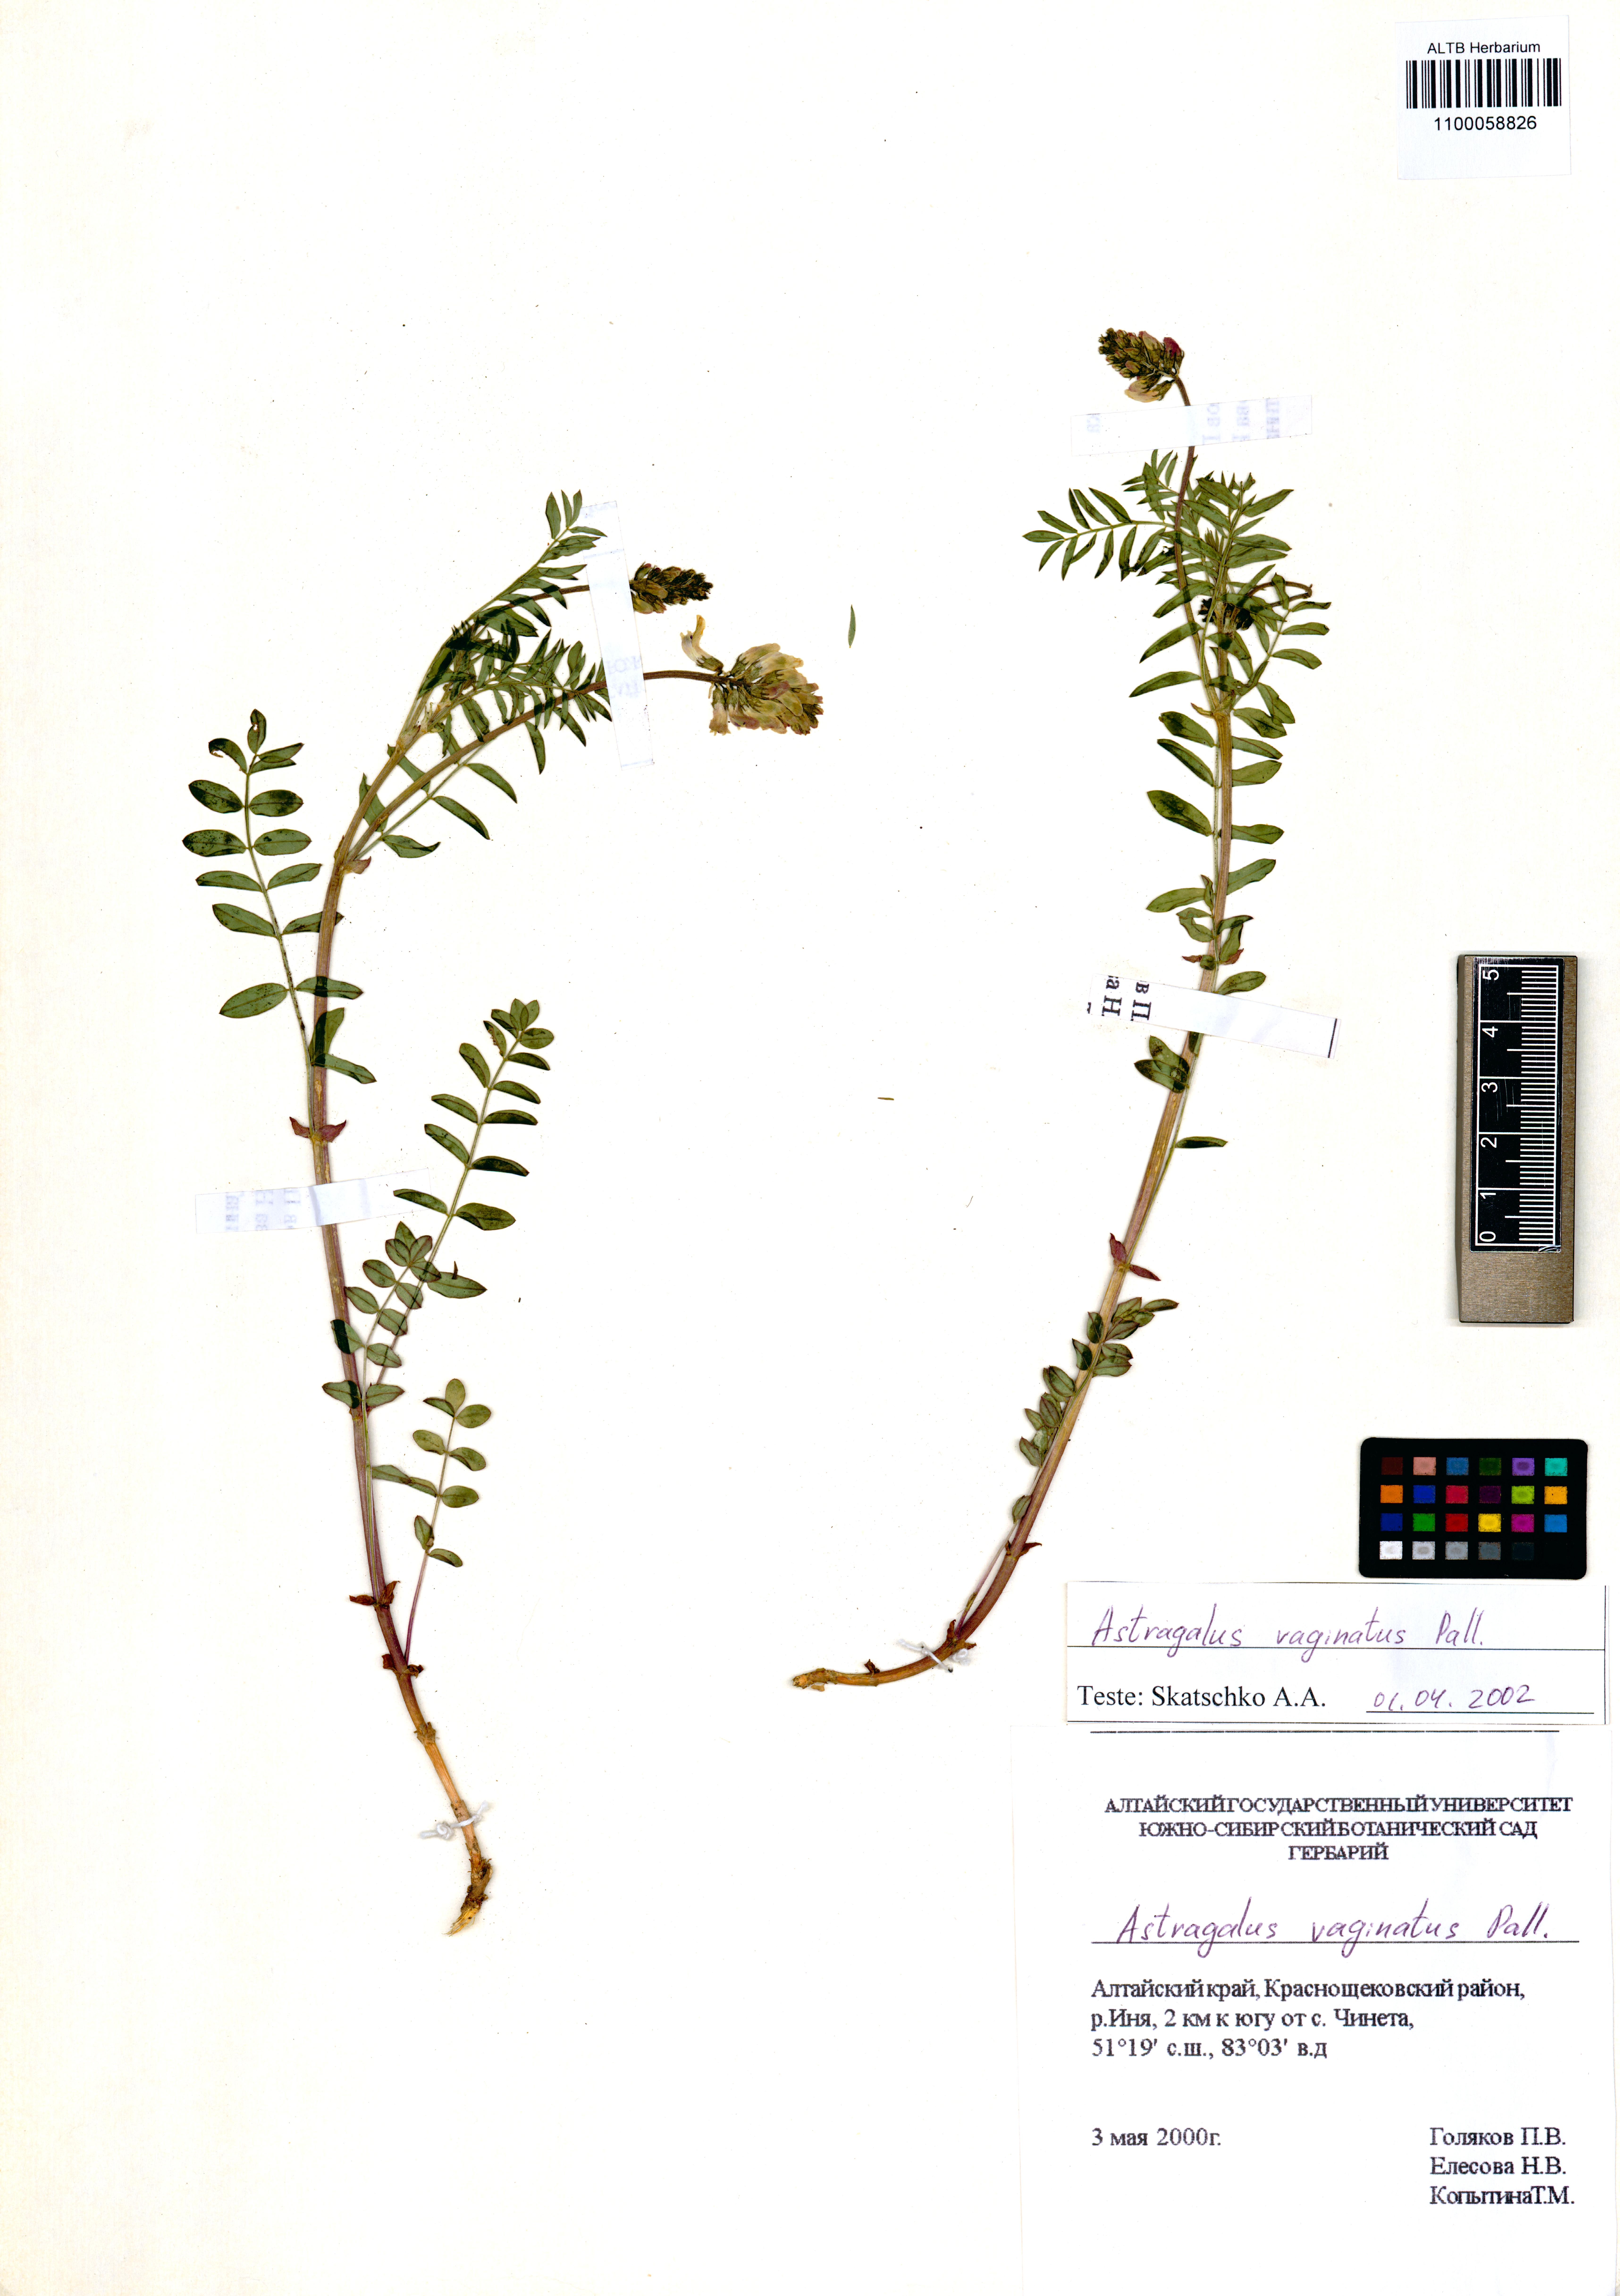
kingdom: Plantae
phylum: Tracheophyta
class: Magnoliopsida
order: Fabales
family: Fabaceae
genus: Astragalus
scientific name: Astragalus vaginatus
